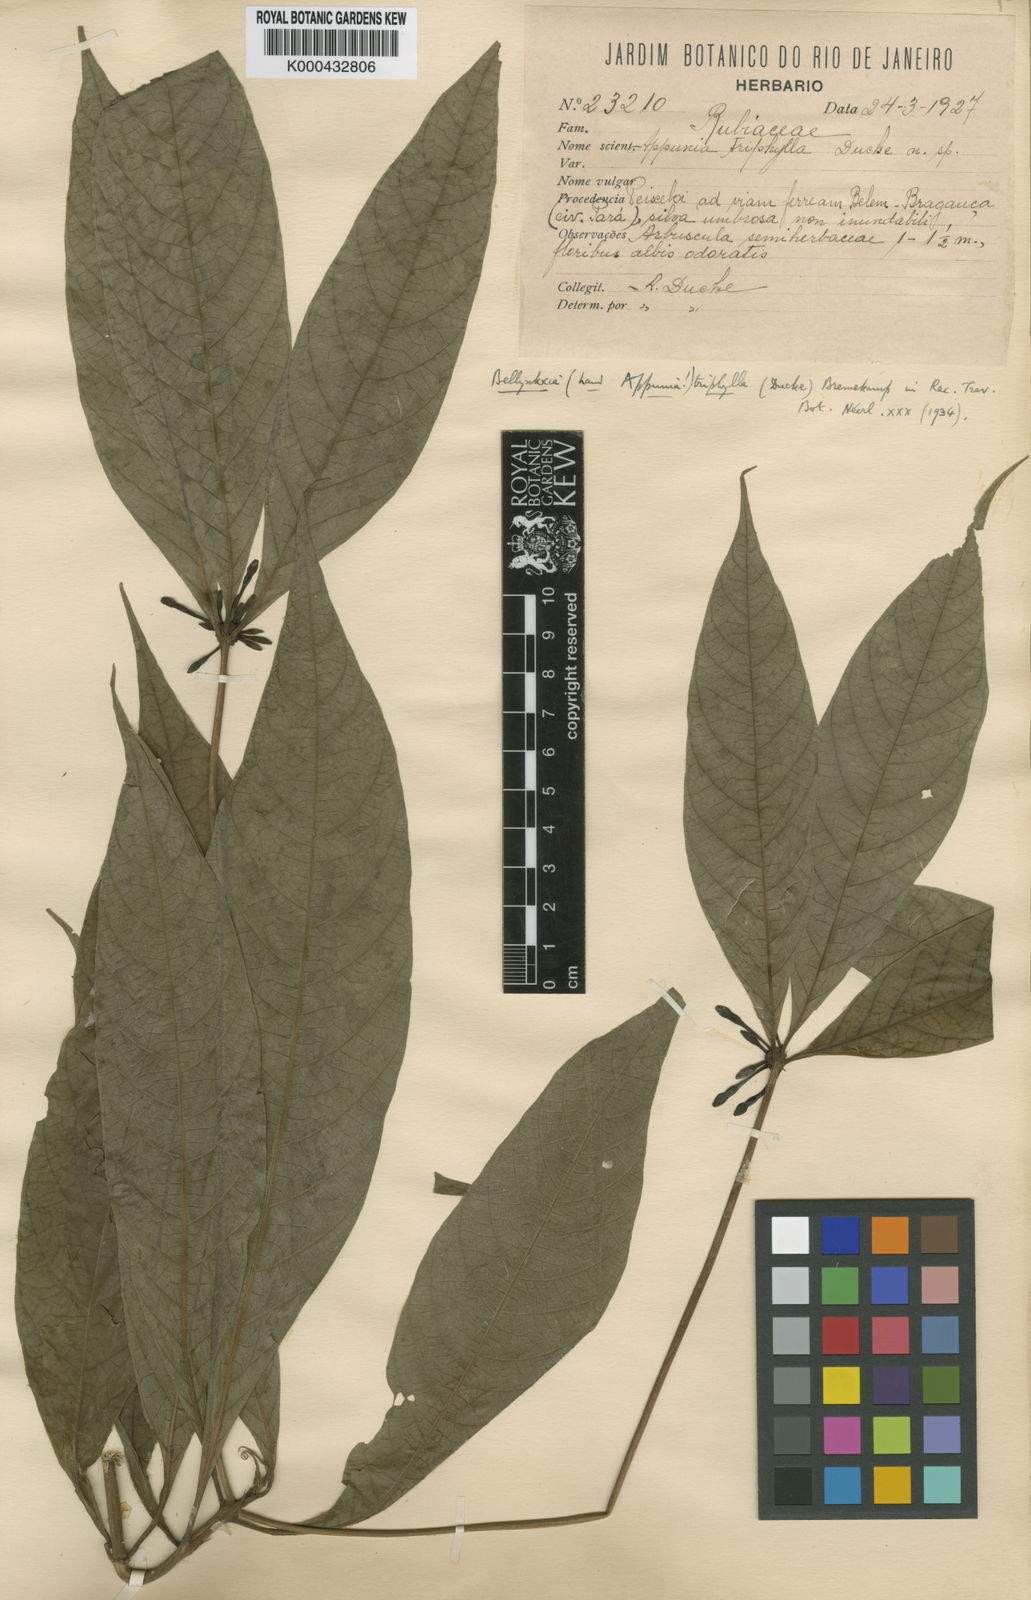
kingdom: Plantae
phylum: Tracheophyta
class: Magnoliopsida
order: Gentianales
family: Rubiaceae
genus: Appunia
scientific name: Appunia triphylla
